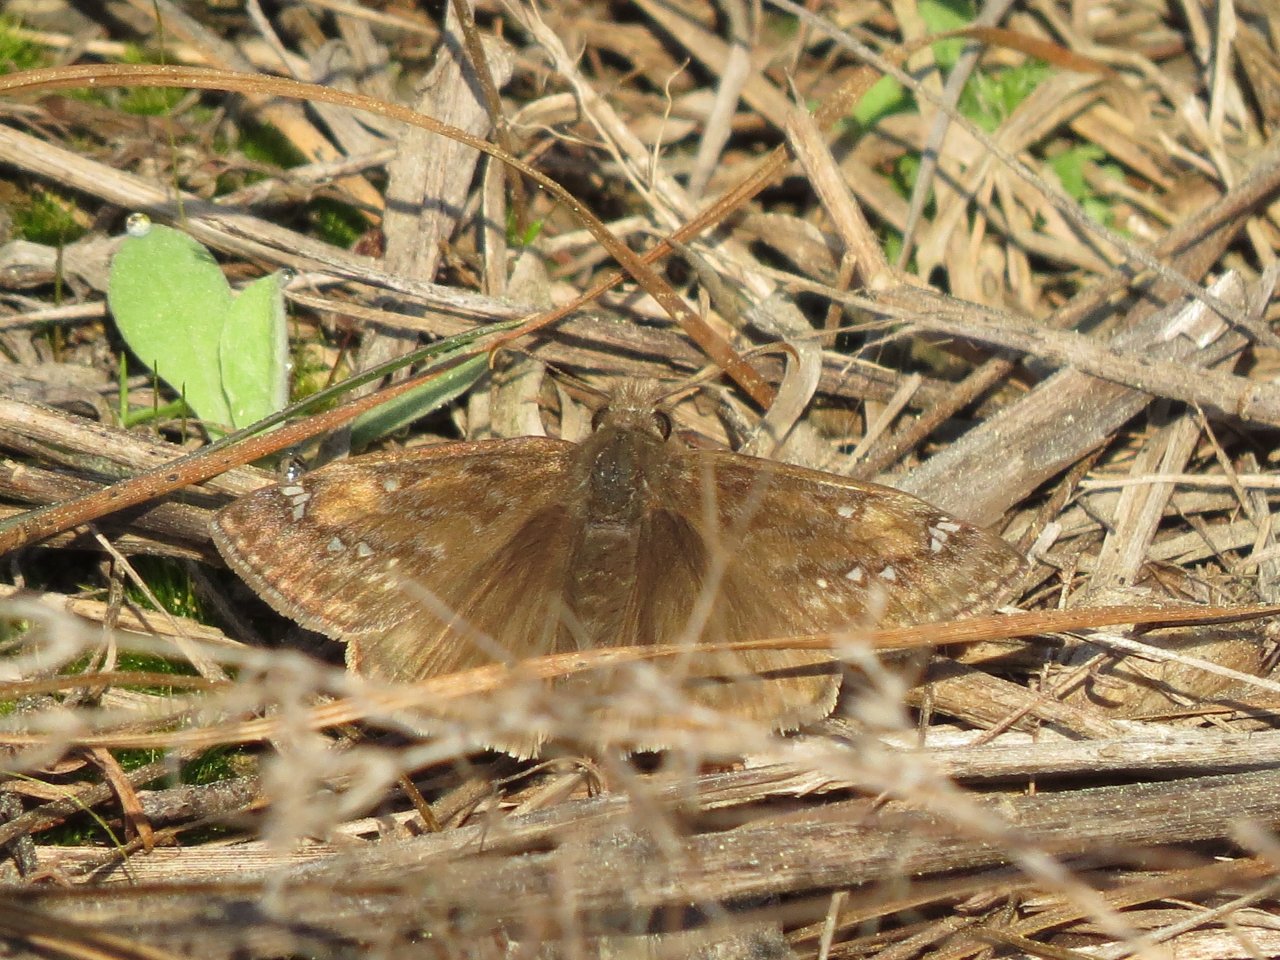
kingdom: Animalia
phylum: Arthropoda
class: Insecta
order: Lepidoptera
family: Hesperiidae
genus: Gesta
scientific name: Gesta
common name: Juvenal's Duskywing
